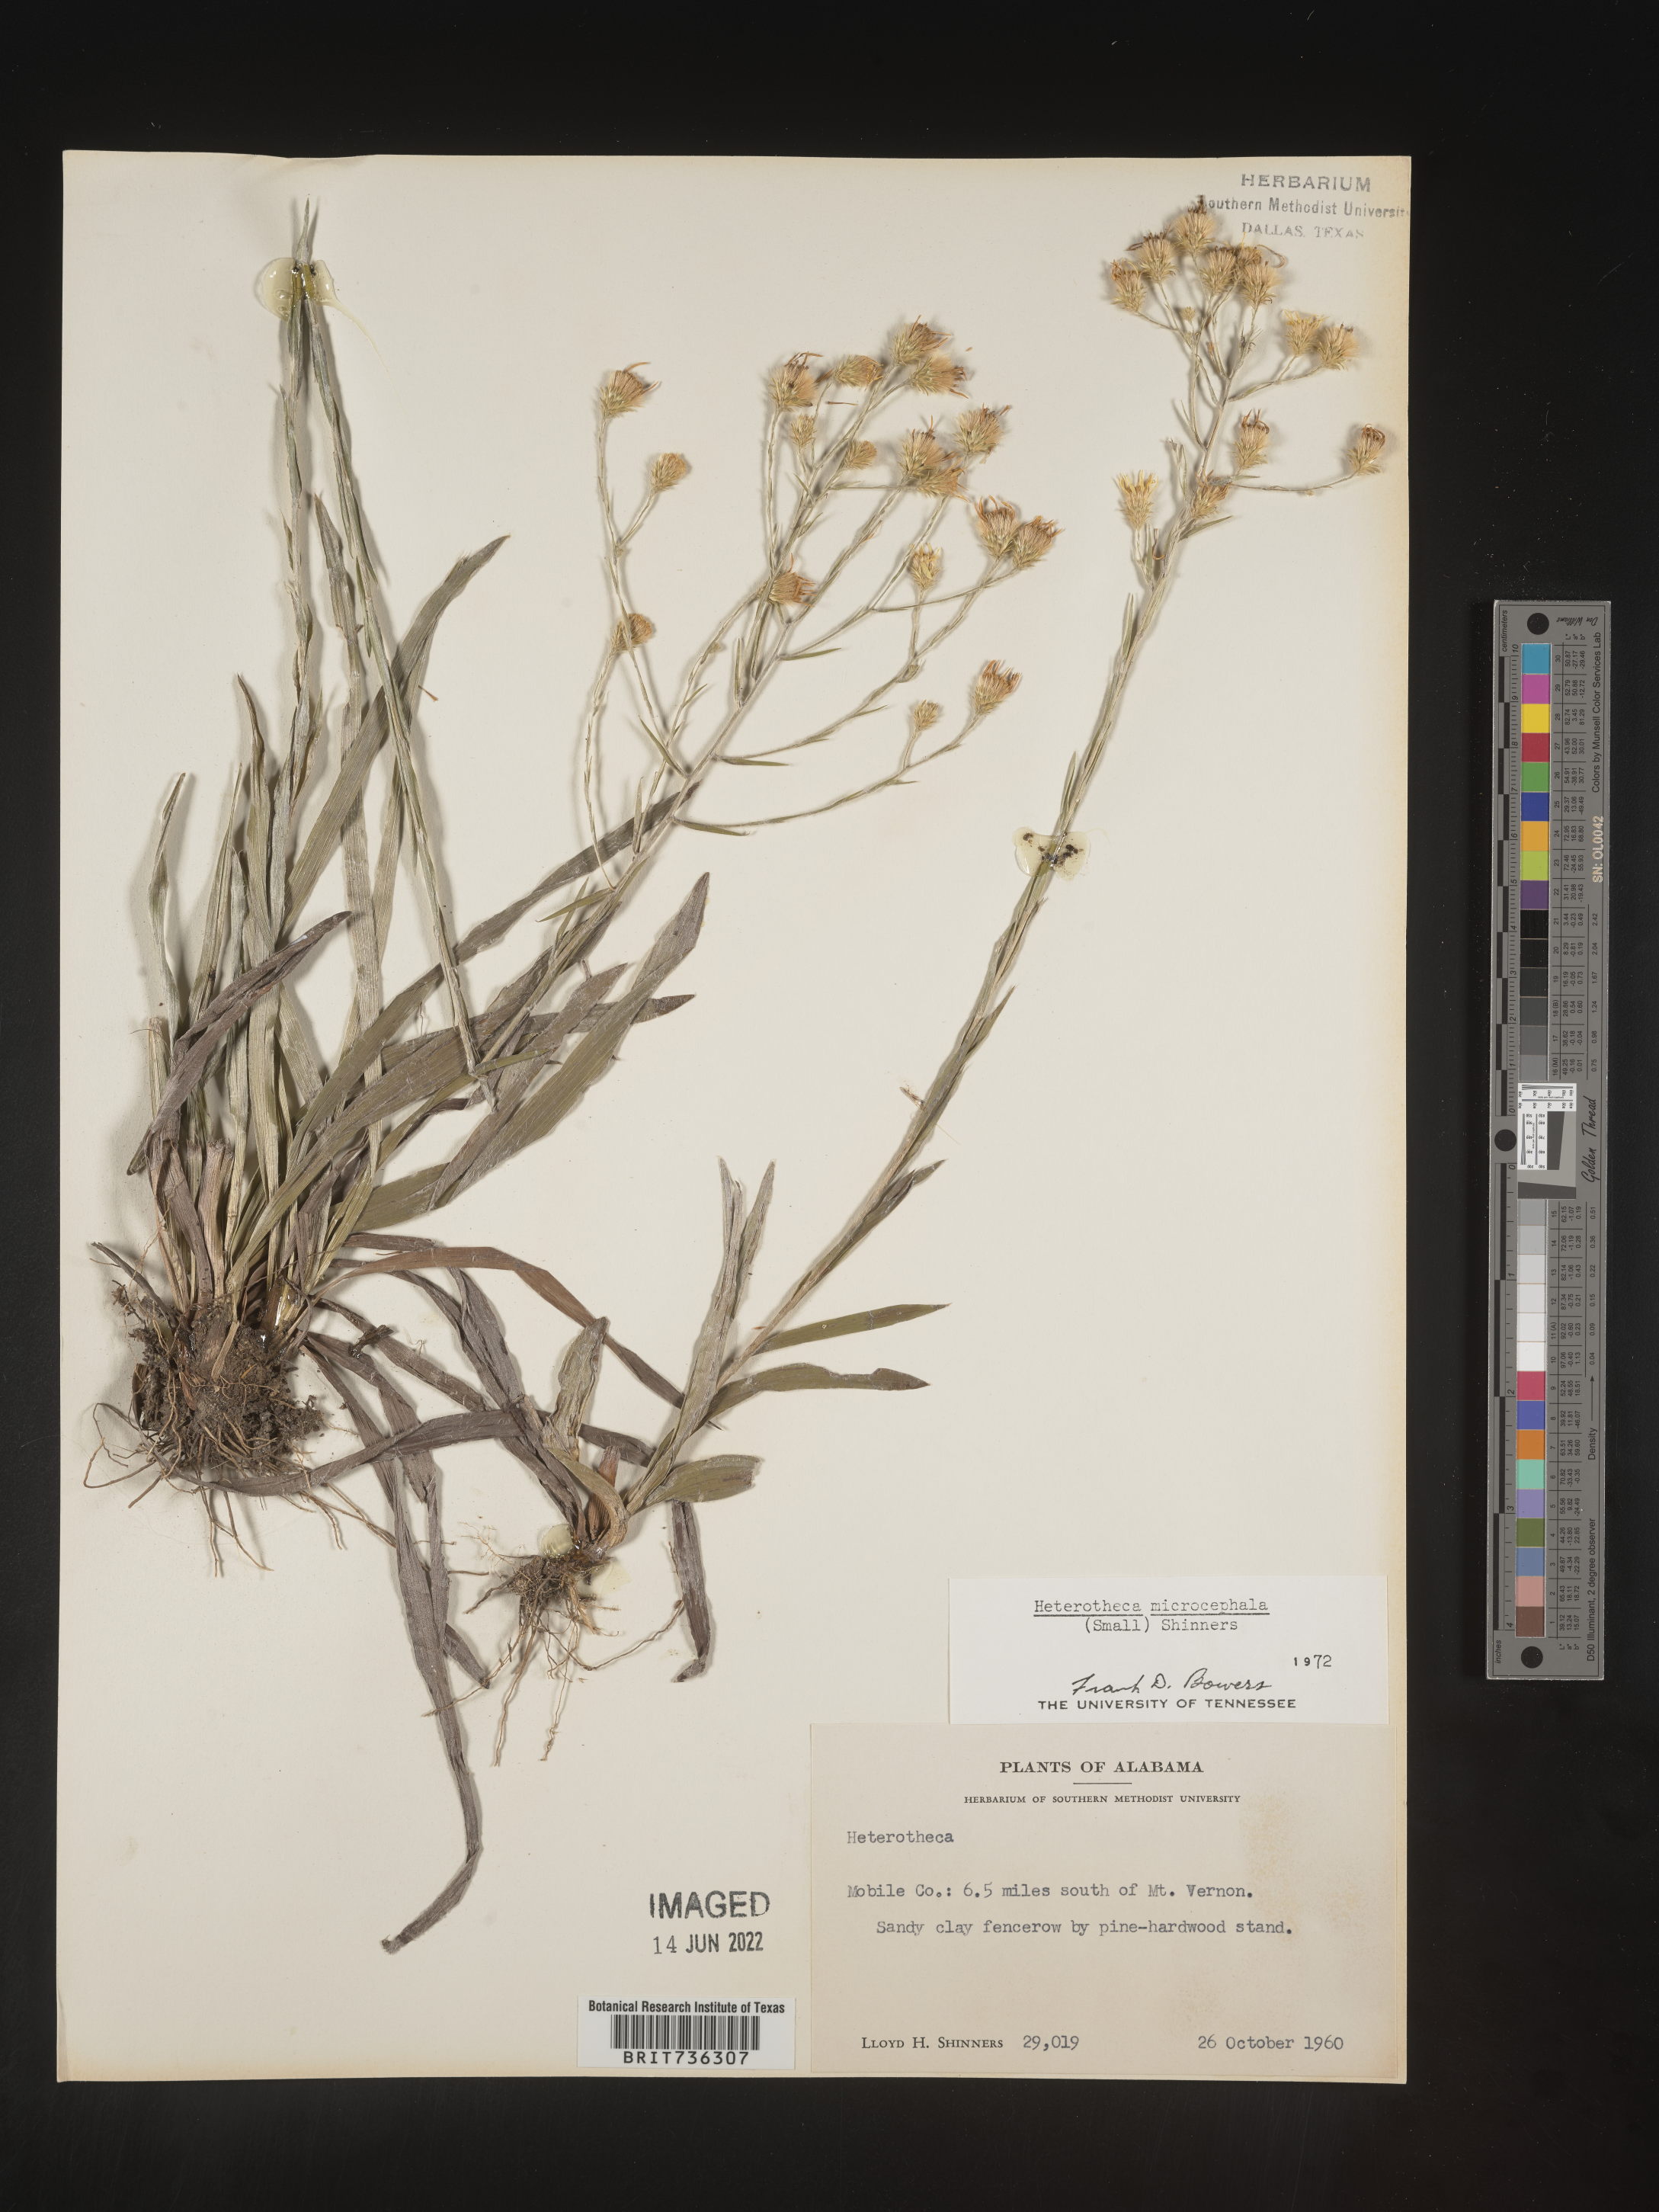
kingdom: Plantae
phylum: Tracheophyta
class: Magnoliopsida
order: Asterales
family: Asteraceae
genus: Pityopsis
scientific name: Pityopsis microcephala
